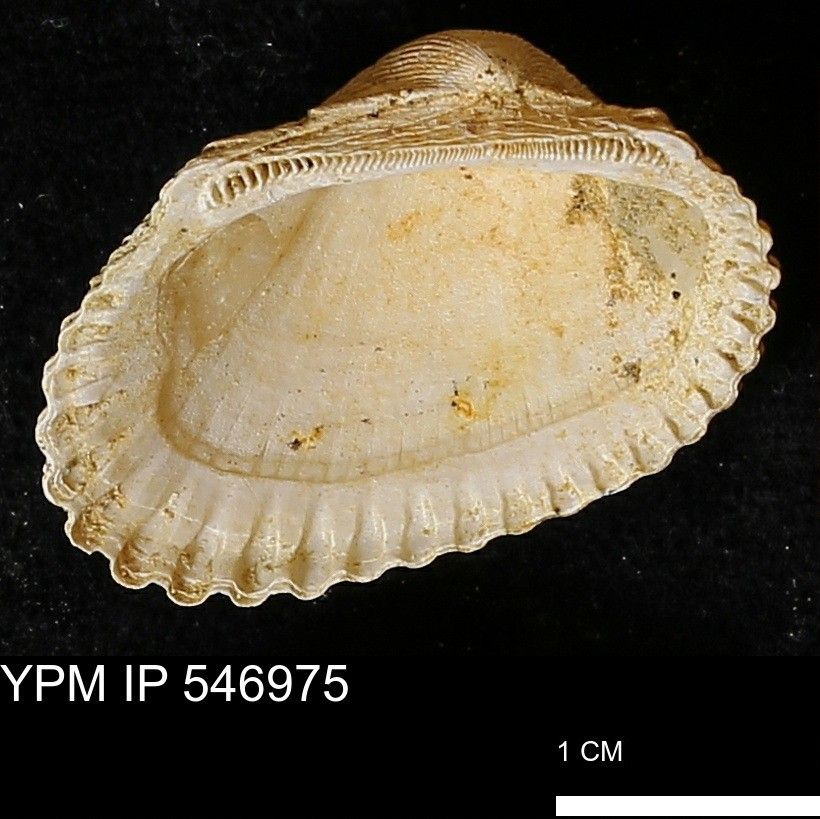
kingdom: Animalia
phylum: Mollusca
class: Bivalvia
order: Arcida
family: Arcidae
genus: Anadara
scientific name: Anadara
